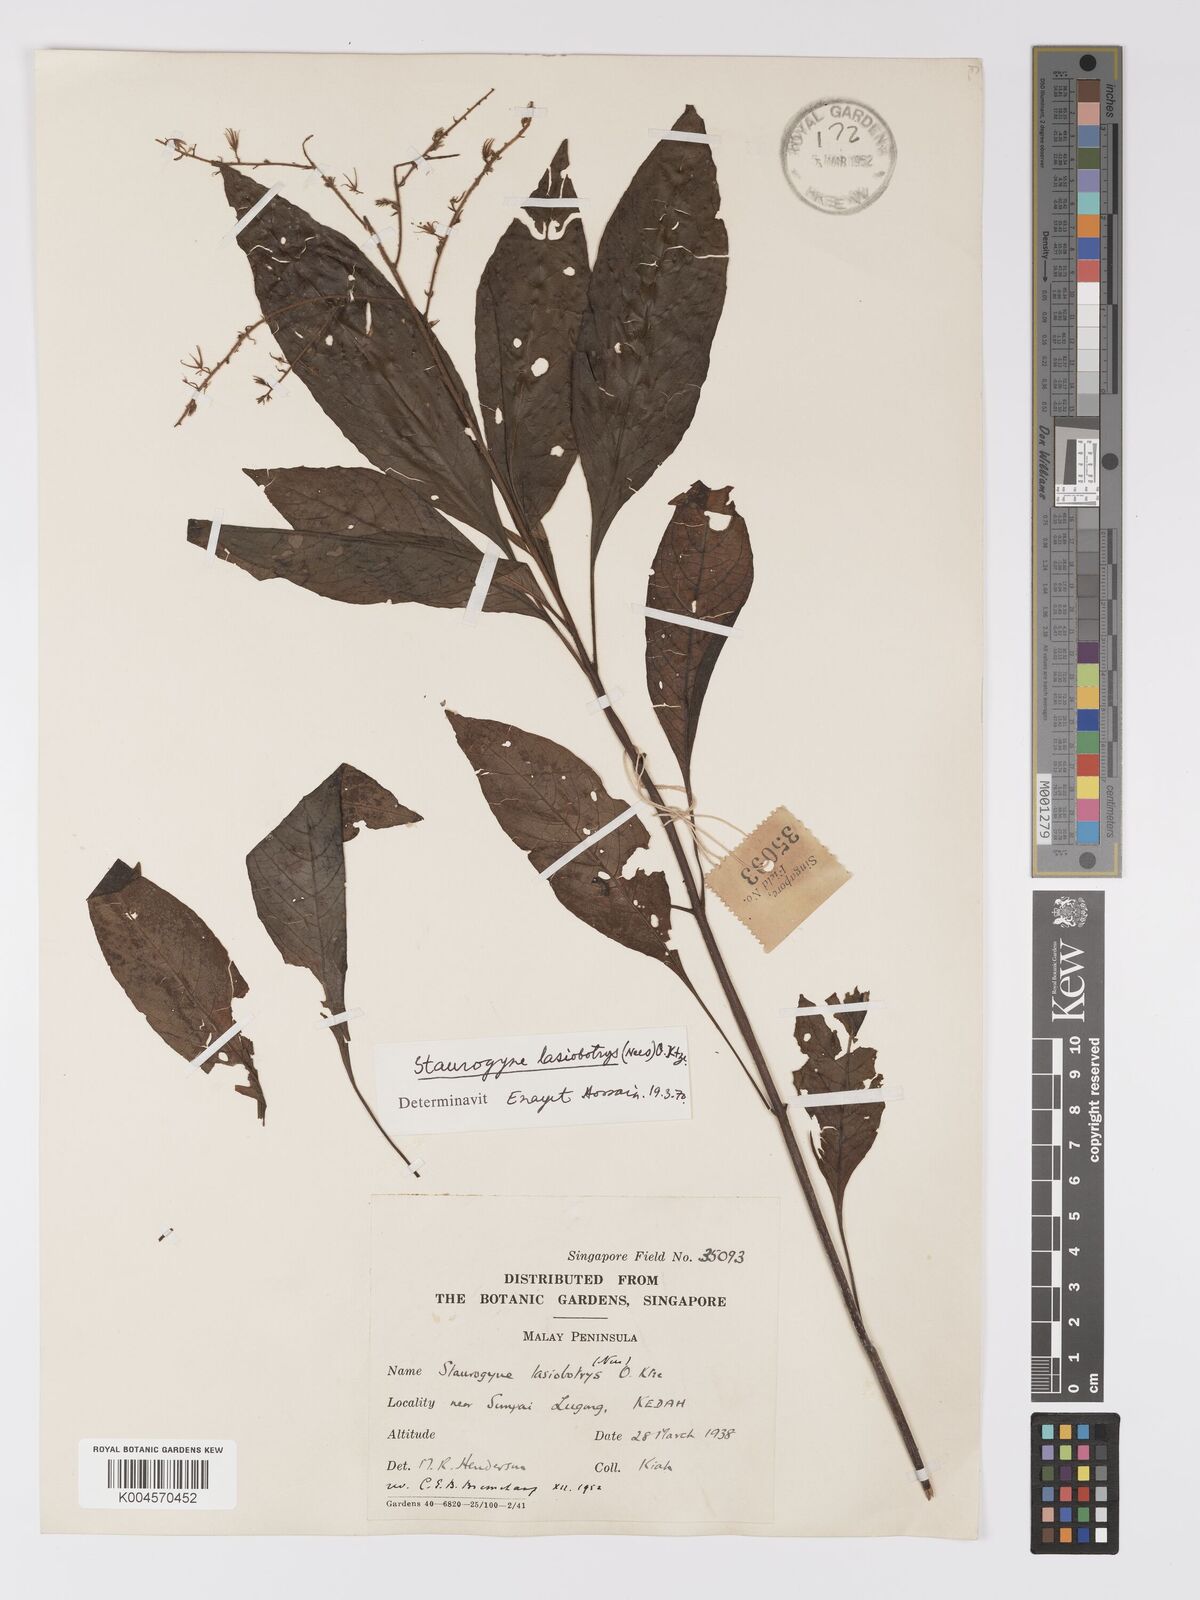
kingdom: Plantae
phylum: Tracheophyta
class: Magnoliopsida
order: Lamiales
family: Acanthaceae
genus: Staurogyne
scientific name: Staurogyne lasiobotrys
